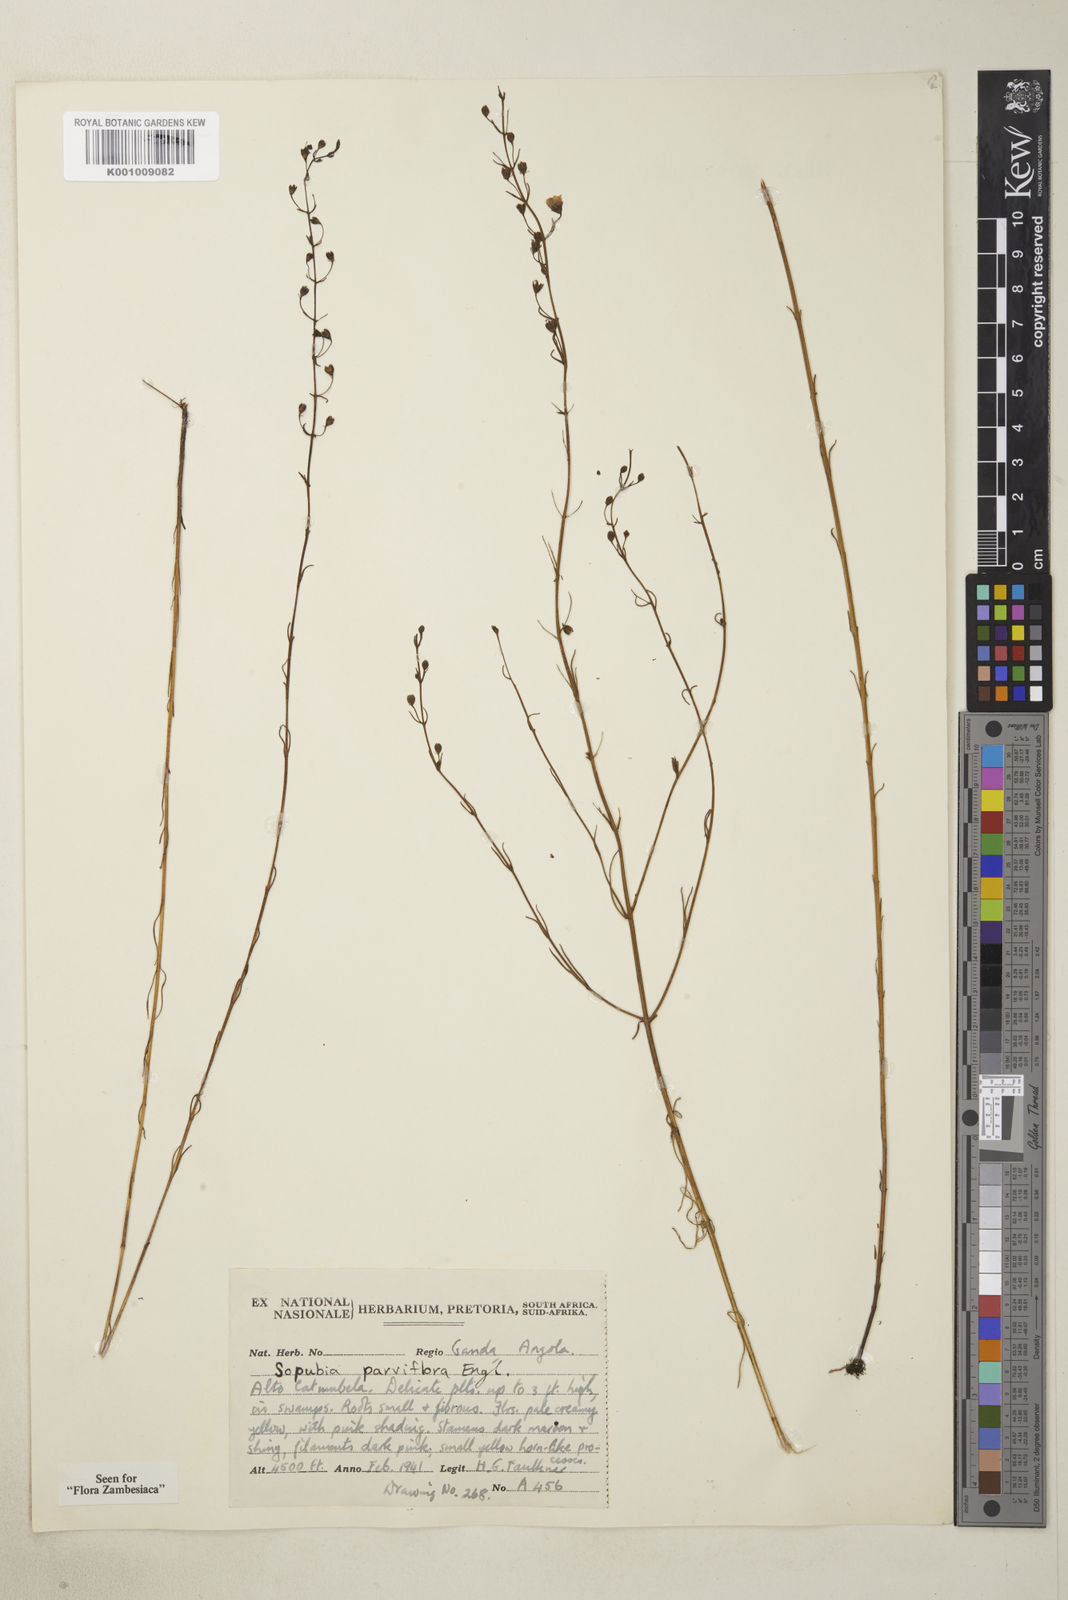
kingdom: Plantae
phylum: Tracheophyta
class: Magnoliopsida
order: Lamiales
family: Orobanchaceae
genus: Sopubia
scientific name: Sopubia parviflora
